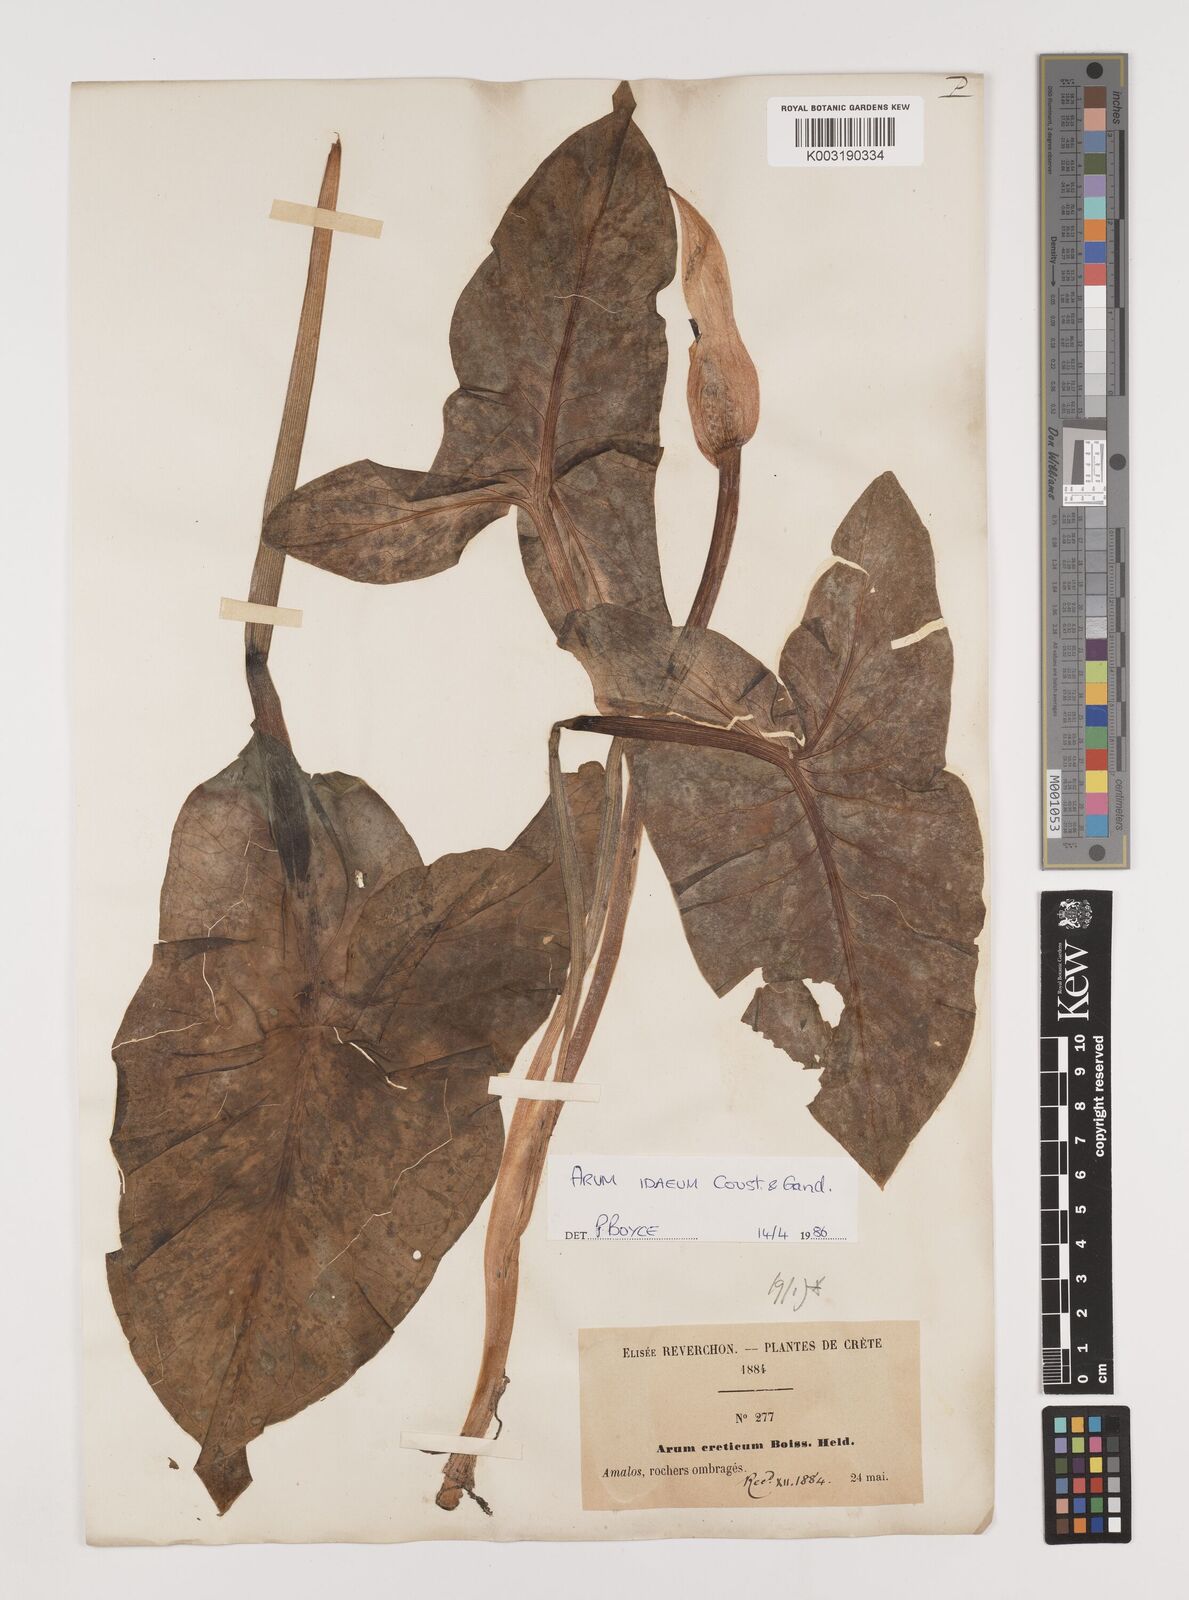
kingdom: Plantae
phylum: Tracheophyta
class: Liliopsida
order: Alismatales
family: Araceae
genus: Arum
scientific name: Arum idaeum
